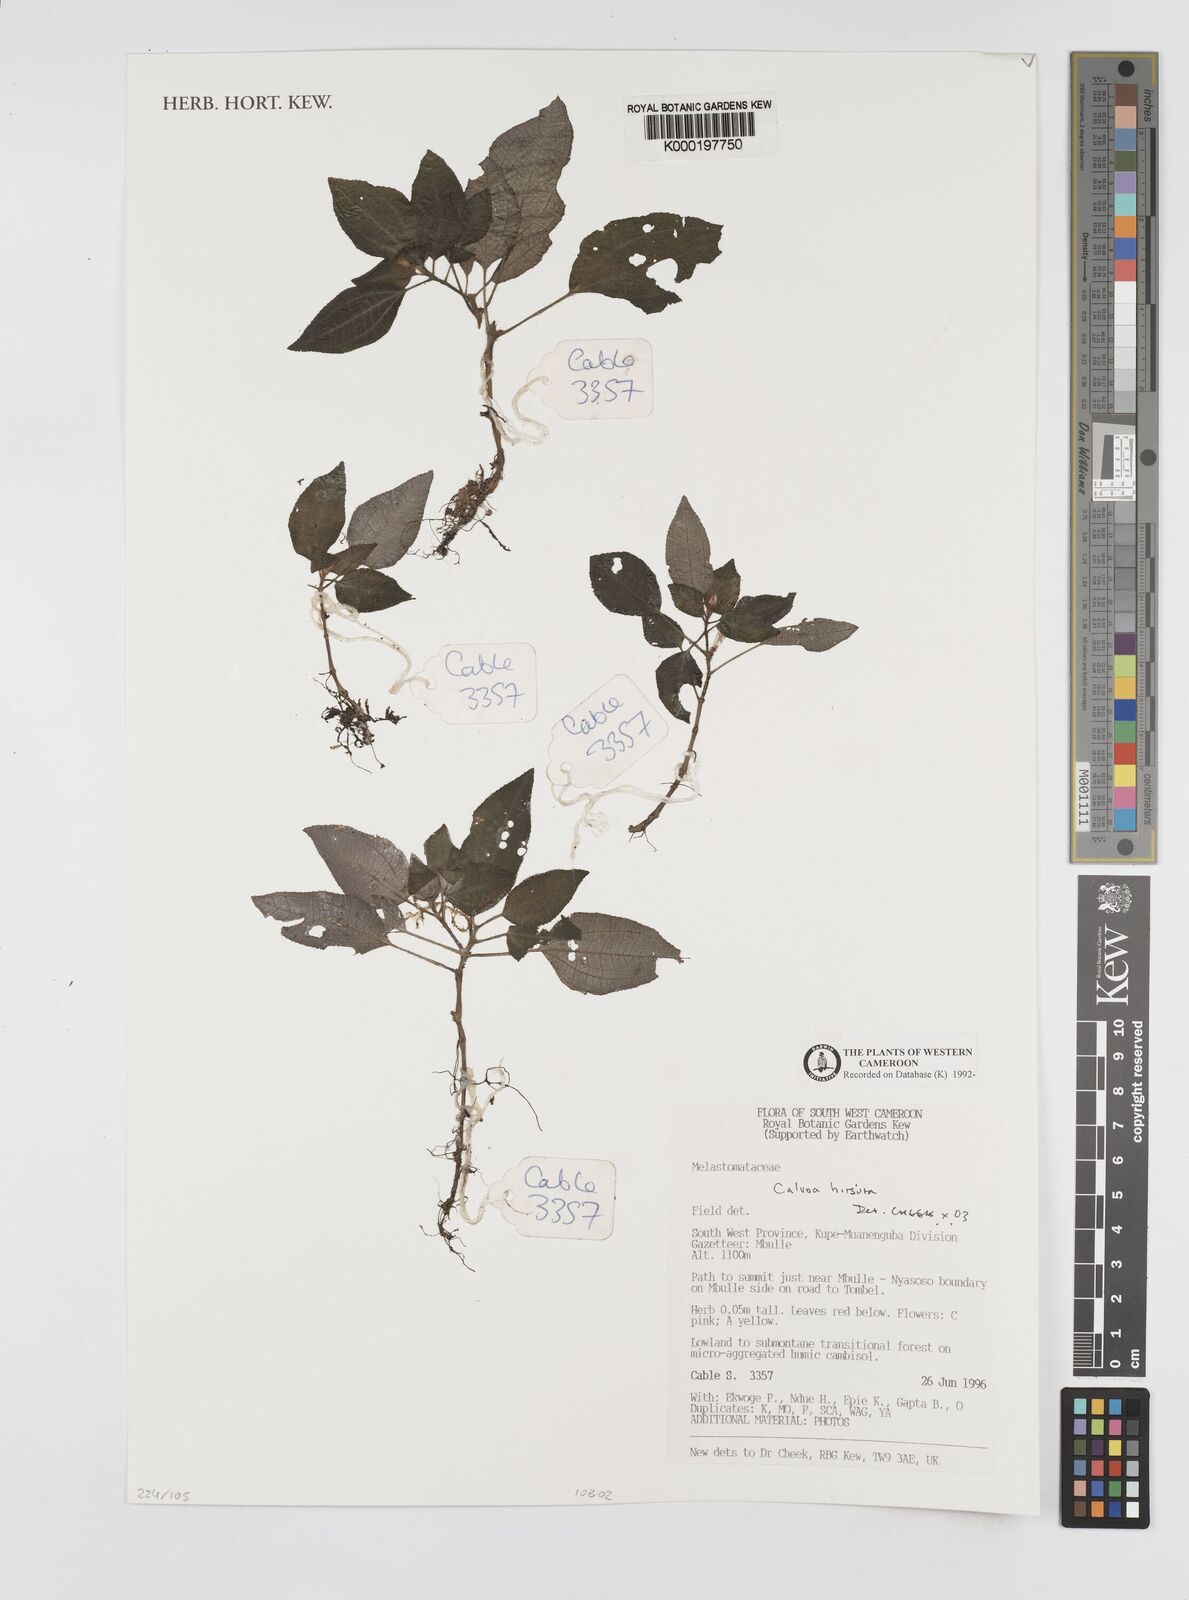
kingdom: Plantae
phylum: Tracheophyta
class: Magnoliopsida
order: Myrtales
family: Melastomataceae
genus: Calvoa
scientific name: Calvoa
